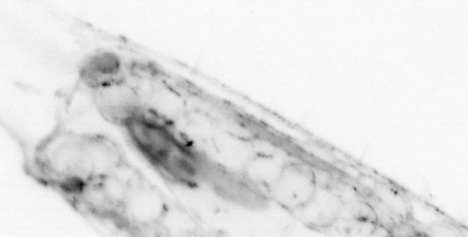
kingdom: Animalia
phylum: Chaetognatha
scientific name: Chaetognatha
